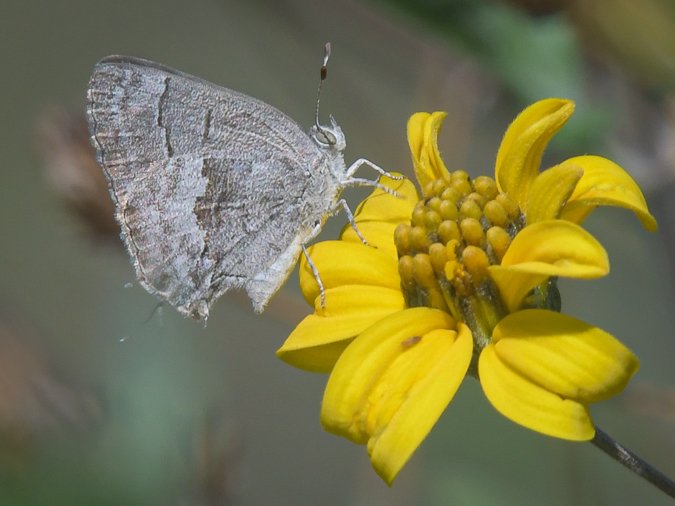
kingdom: Animalia
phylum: Arthropoda
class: Insecta
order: Lepidoptera
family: Lycaenidae
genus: Ministrymon
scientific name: Ministrymon leda
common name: Leda Ministreak
